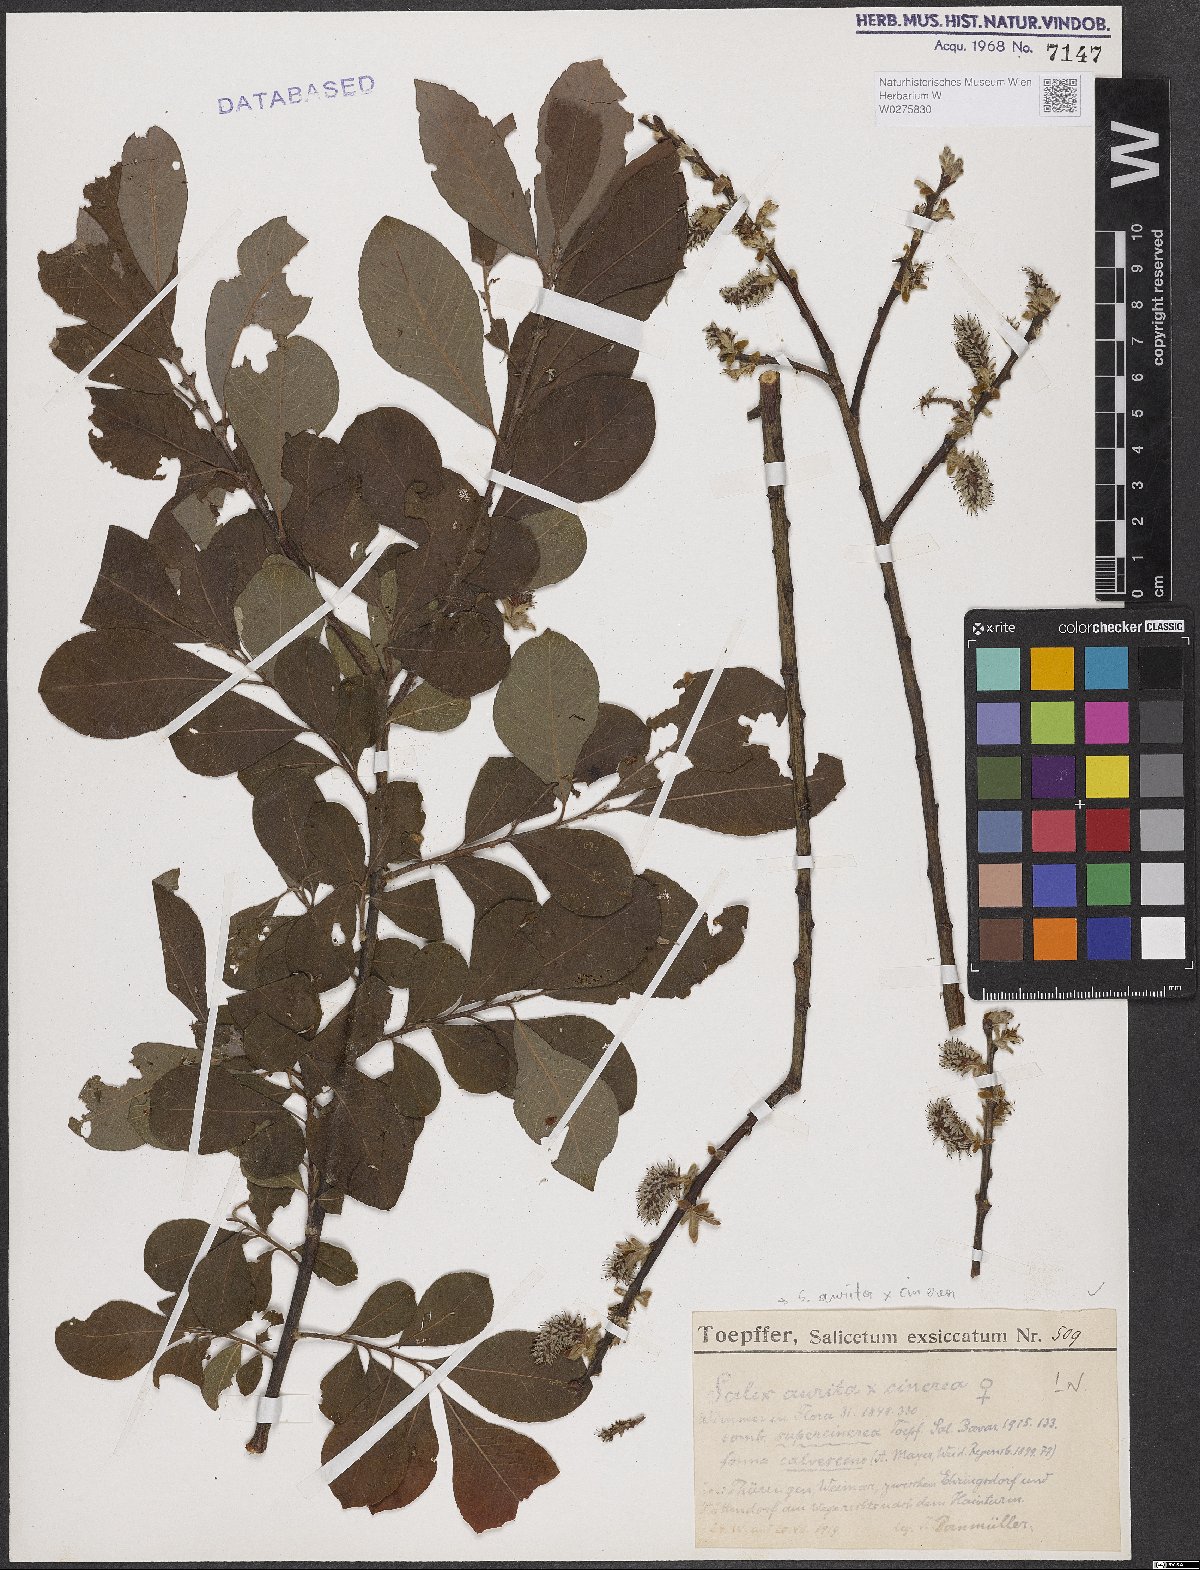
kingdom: Plantae
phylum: Tracheophyta
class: Magnoliopsida
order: Malpighiales
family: Salicaceae
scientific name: Salicaceae
